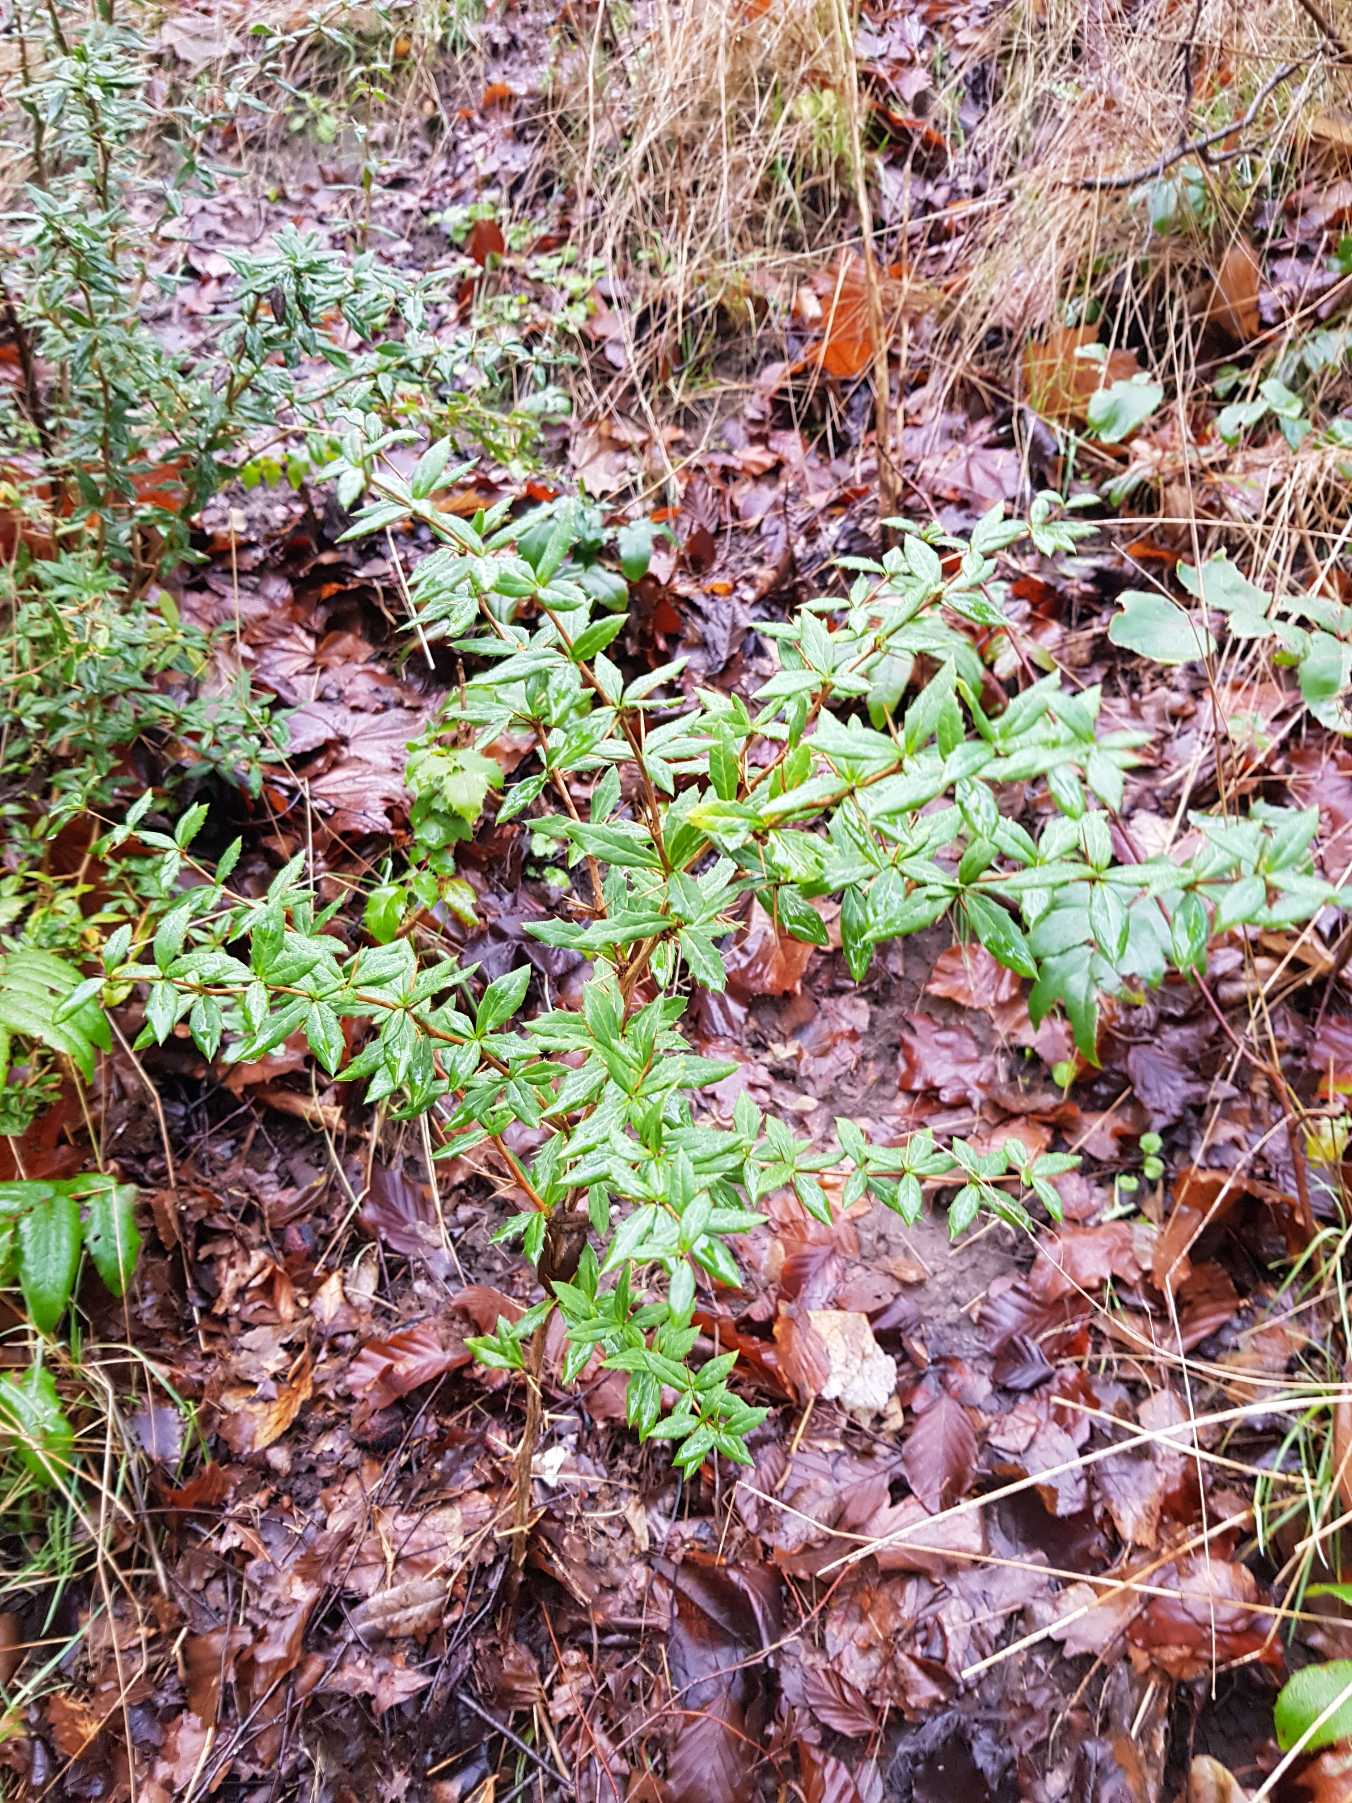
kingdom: Plantae
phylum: Tracheophyta
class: Magnoliopsida
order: Ranunculales
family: Berberidaceae
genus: Berberis
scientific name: Berberis hybridogagnepainii
